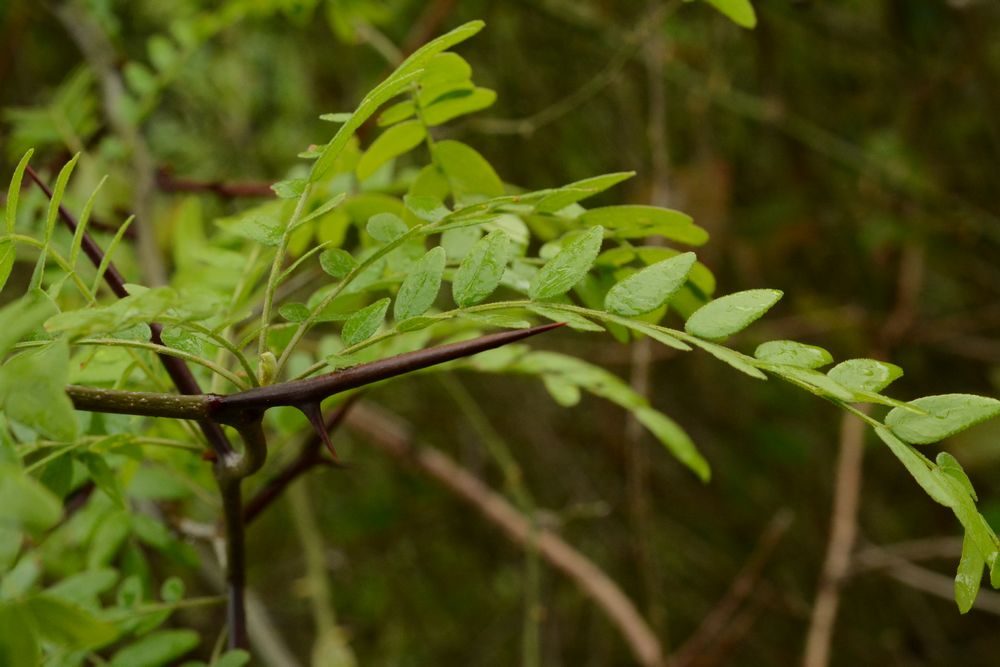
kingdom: Plantae
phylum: Tracheophyta
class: Magnoliopsida
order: Fabales
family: Fabaceae
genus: Gleditsia
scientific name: Gleditsia triacanthos
